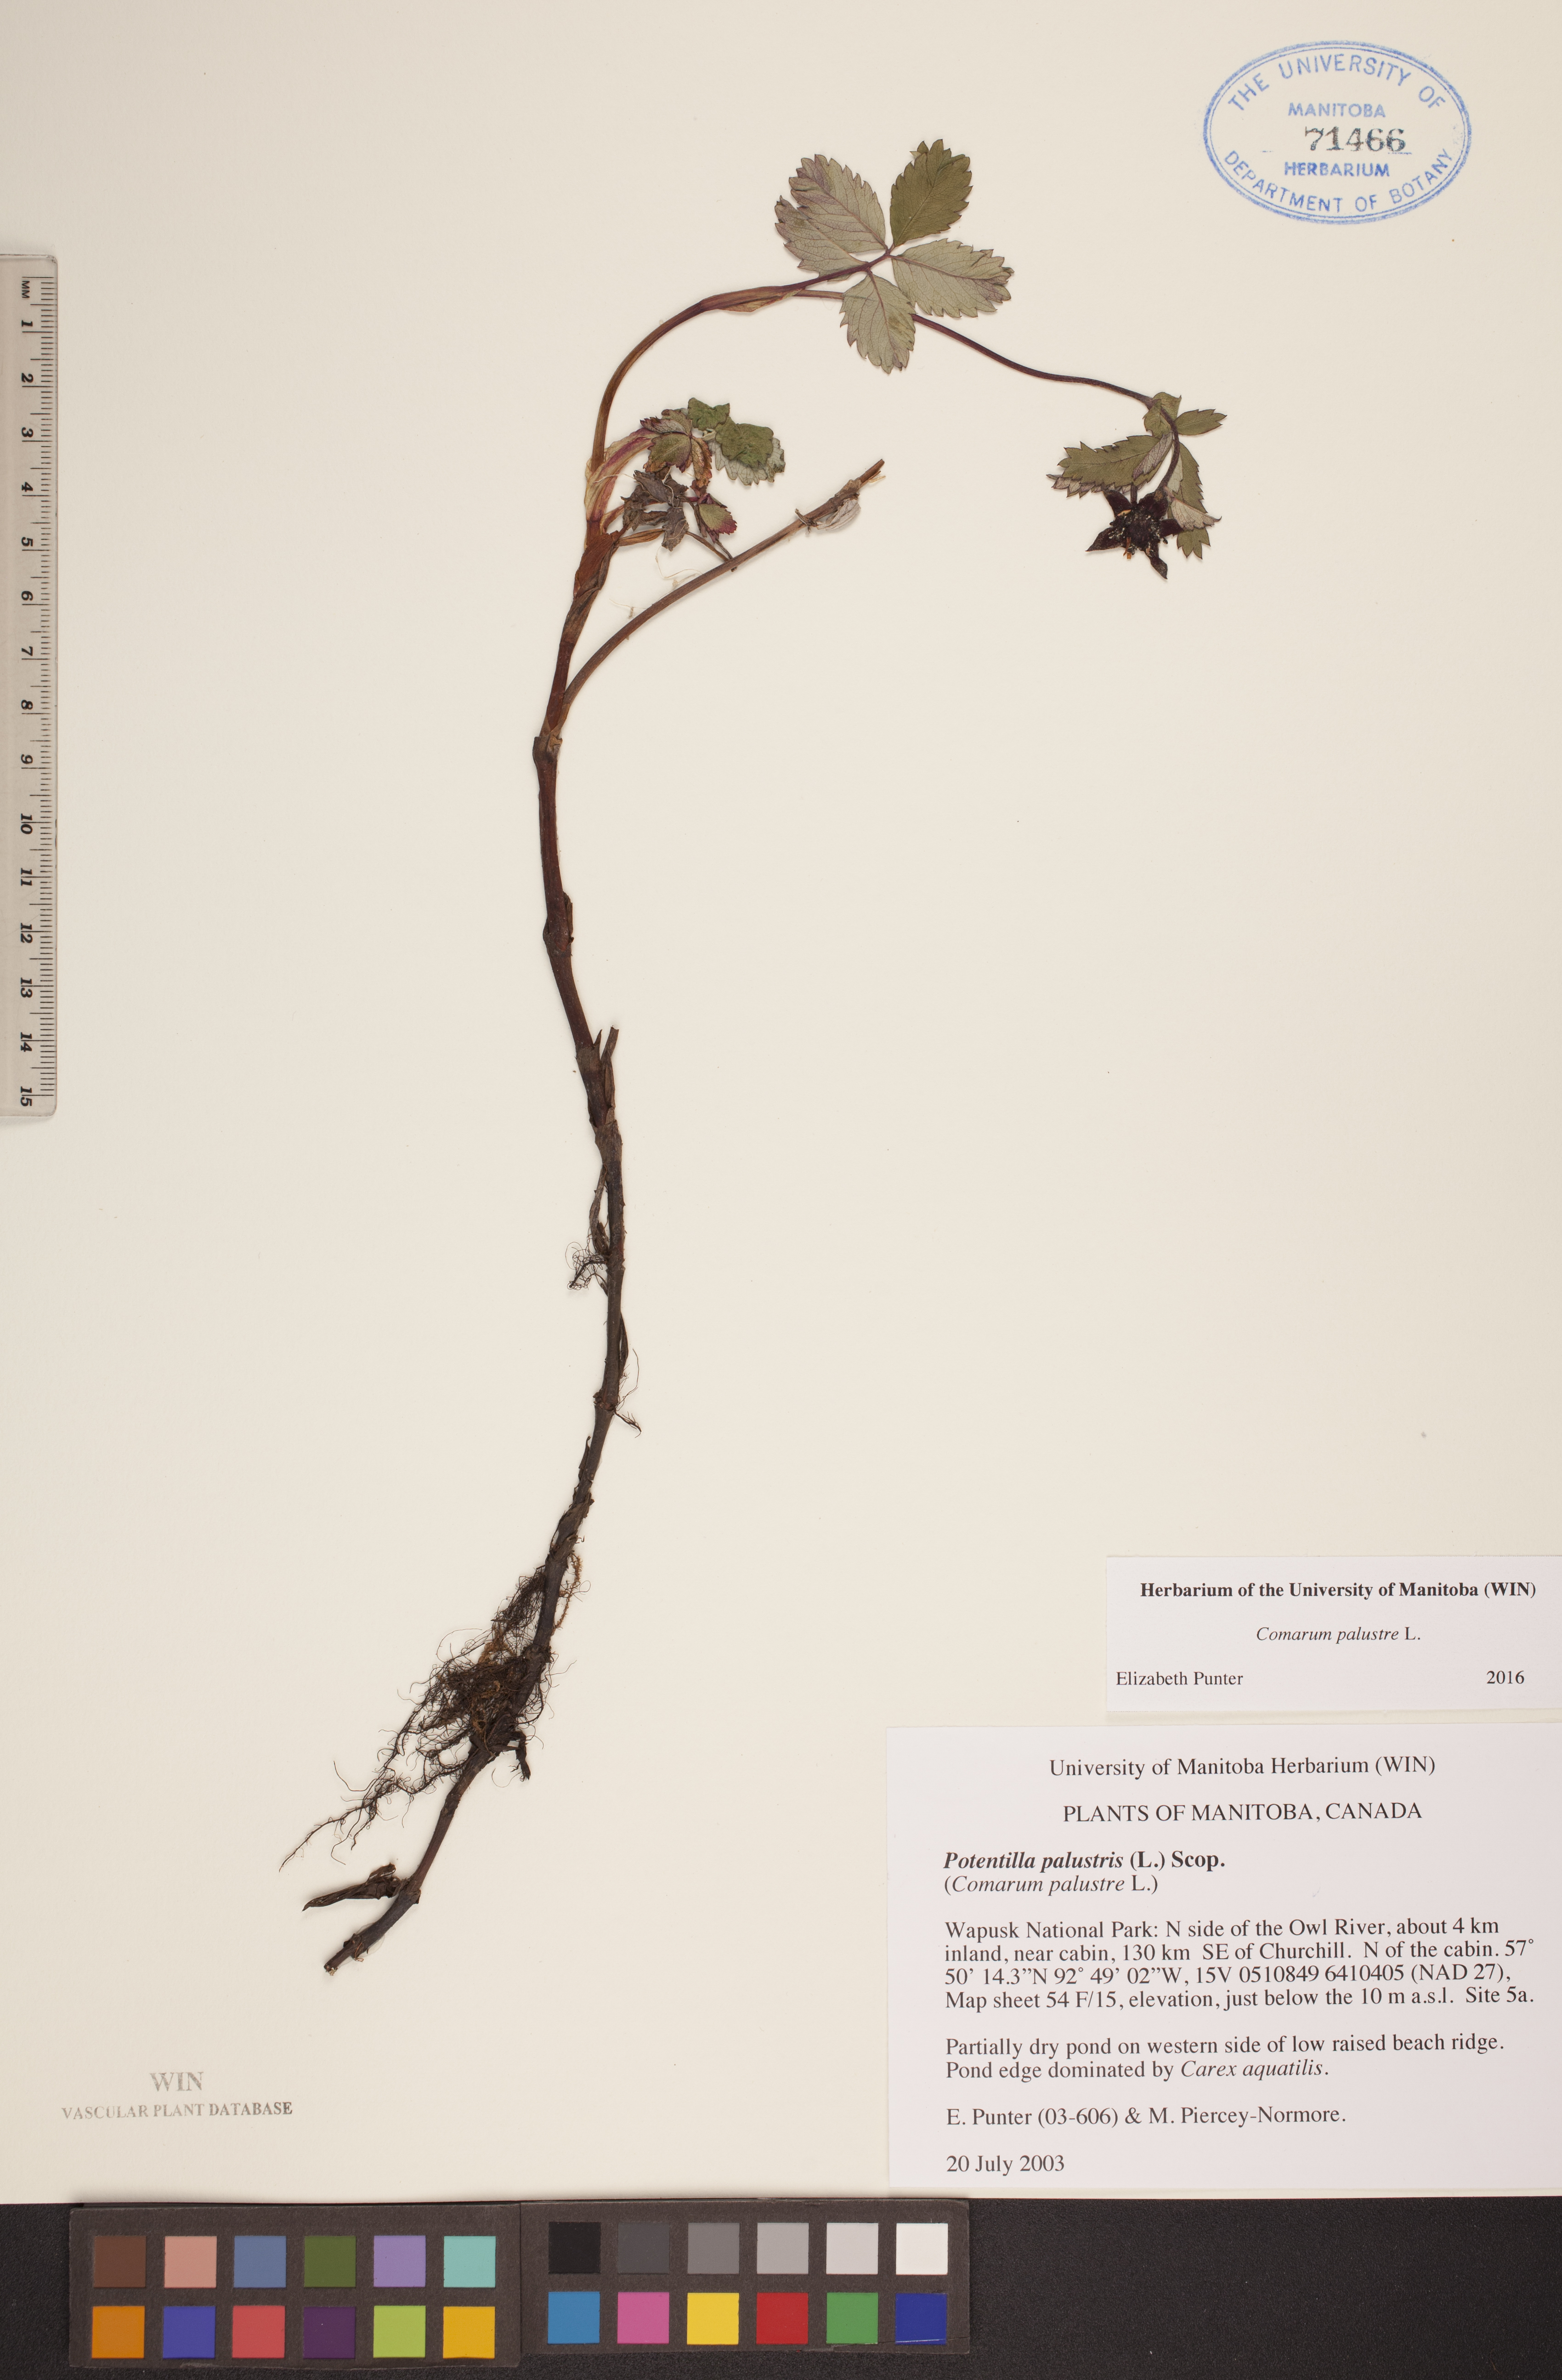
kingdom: Plantae
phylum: Tracheophyta
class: Magnoliopsida
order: Rosales
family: Rosaceae
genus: Comarum
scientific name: Comarum palustre
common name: Marsh cinquefoil
